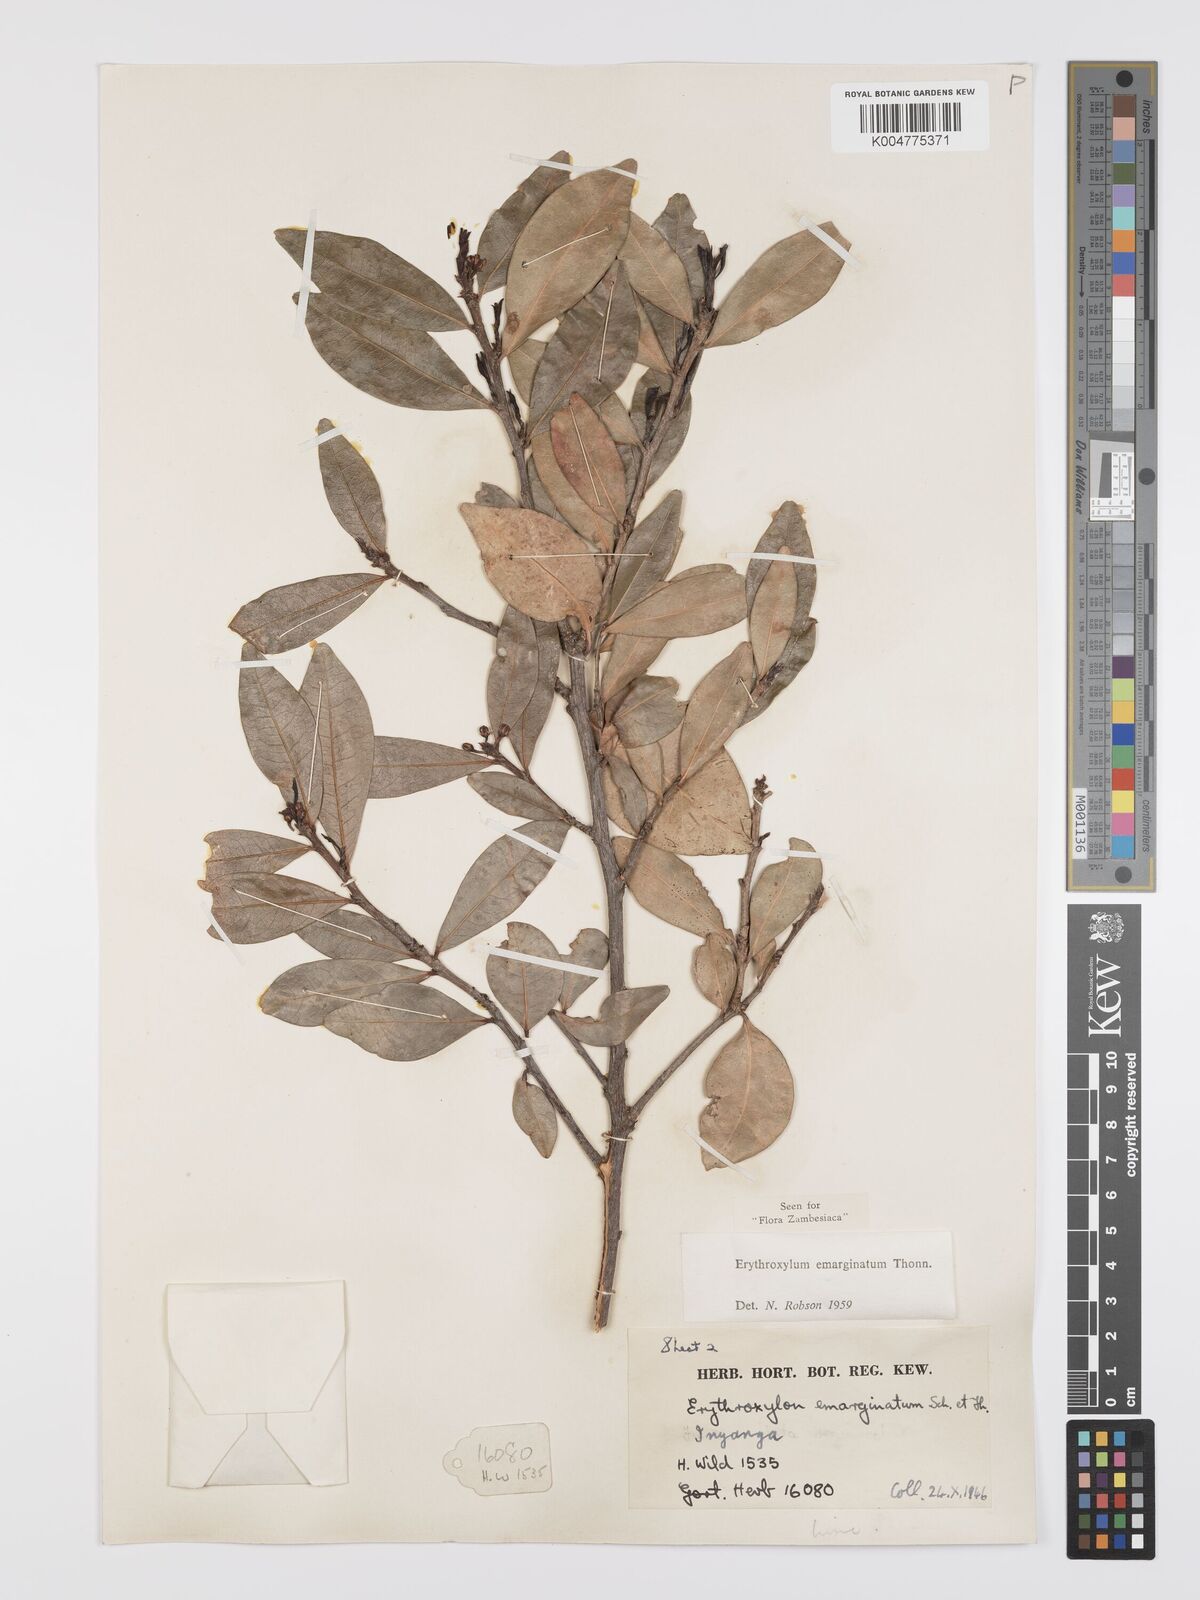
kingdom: Plantae
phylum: Tracheophyta
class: Magnoliopsida
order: Malpighiales
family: Erythroxylaceae
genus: Erythroxylum
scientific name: Erythroxylum emarginatum
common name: African coca-tree
